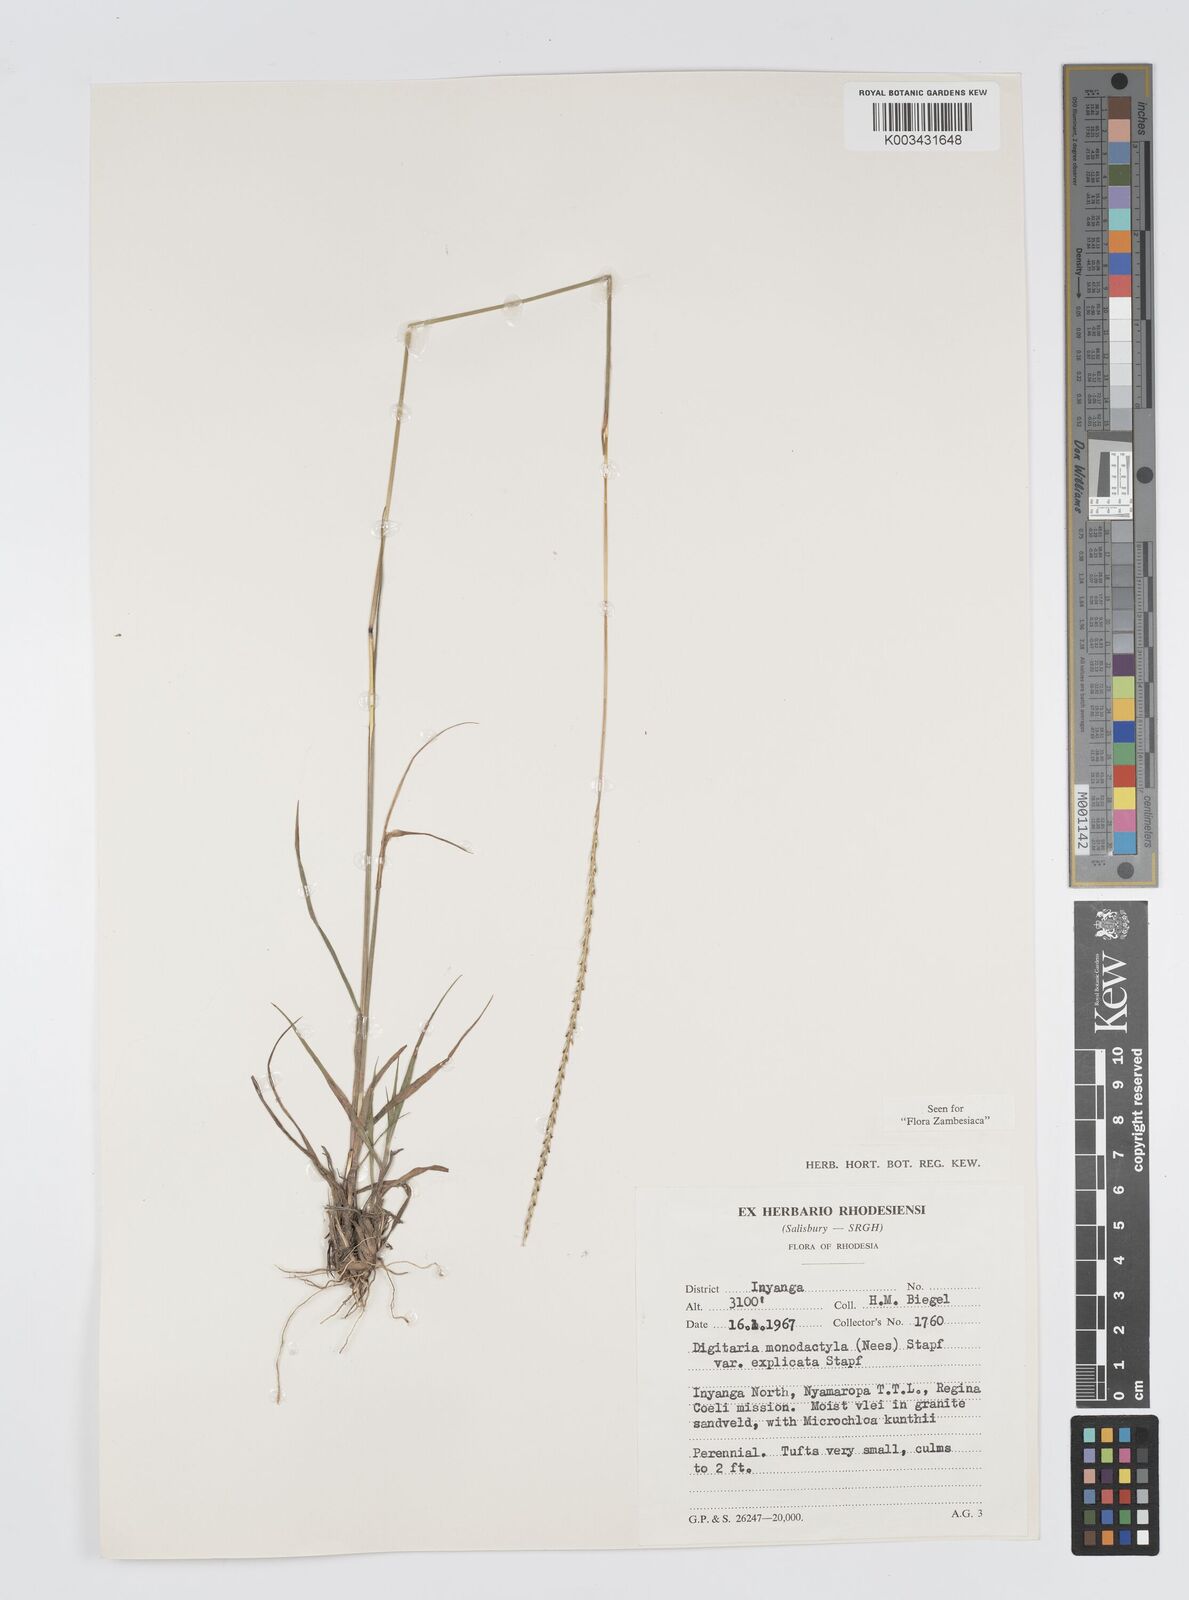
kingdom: Plantae
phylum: Tracheophyta
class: Liliopsida
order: Poales
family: Poaceae
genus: Digitaria
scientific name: Digitaria monodactyla
